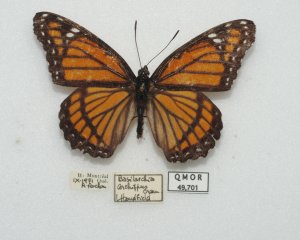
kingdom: Animalia
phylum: Arthropoda
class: Insecta
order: Lepidoptera
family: Nymphalidae
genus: Limenitis
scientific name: Limenitis archippus
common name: Viceroy
